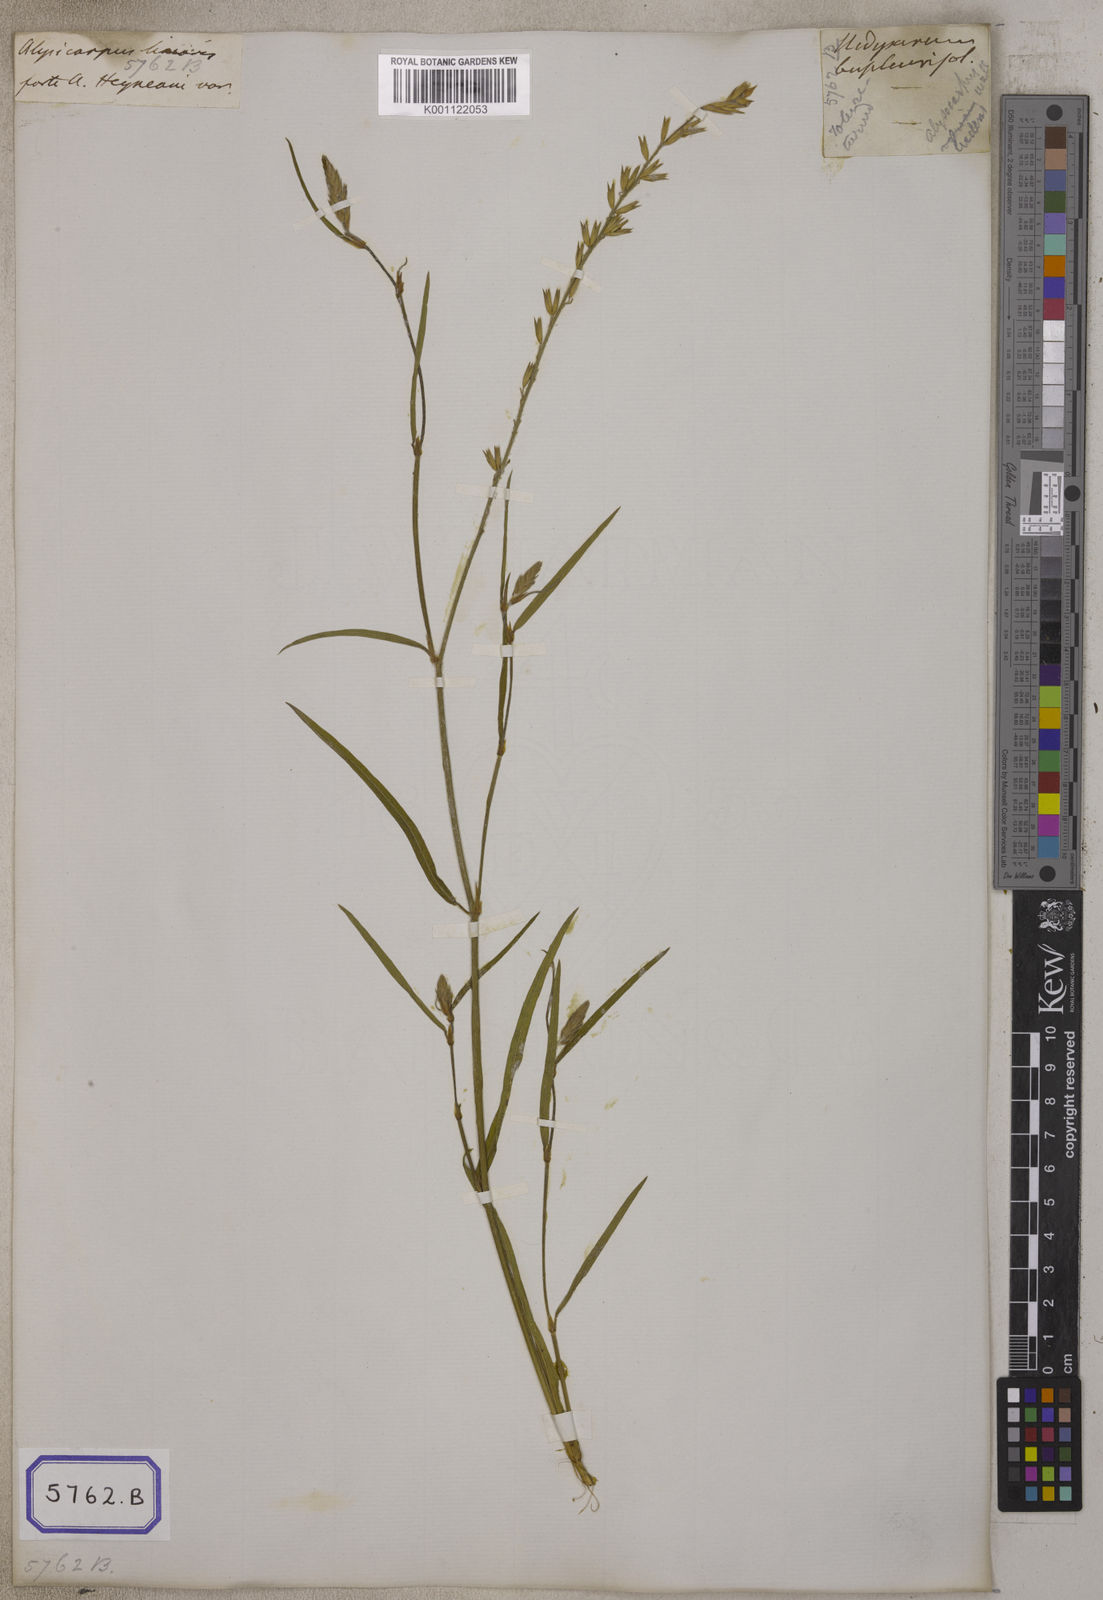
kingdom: Plantae
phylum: Tracheophyta
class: Magnoliopsida
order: Fabales
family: Fabaceae
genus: Alysicarpus
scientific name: Alysicarpus
